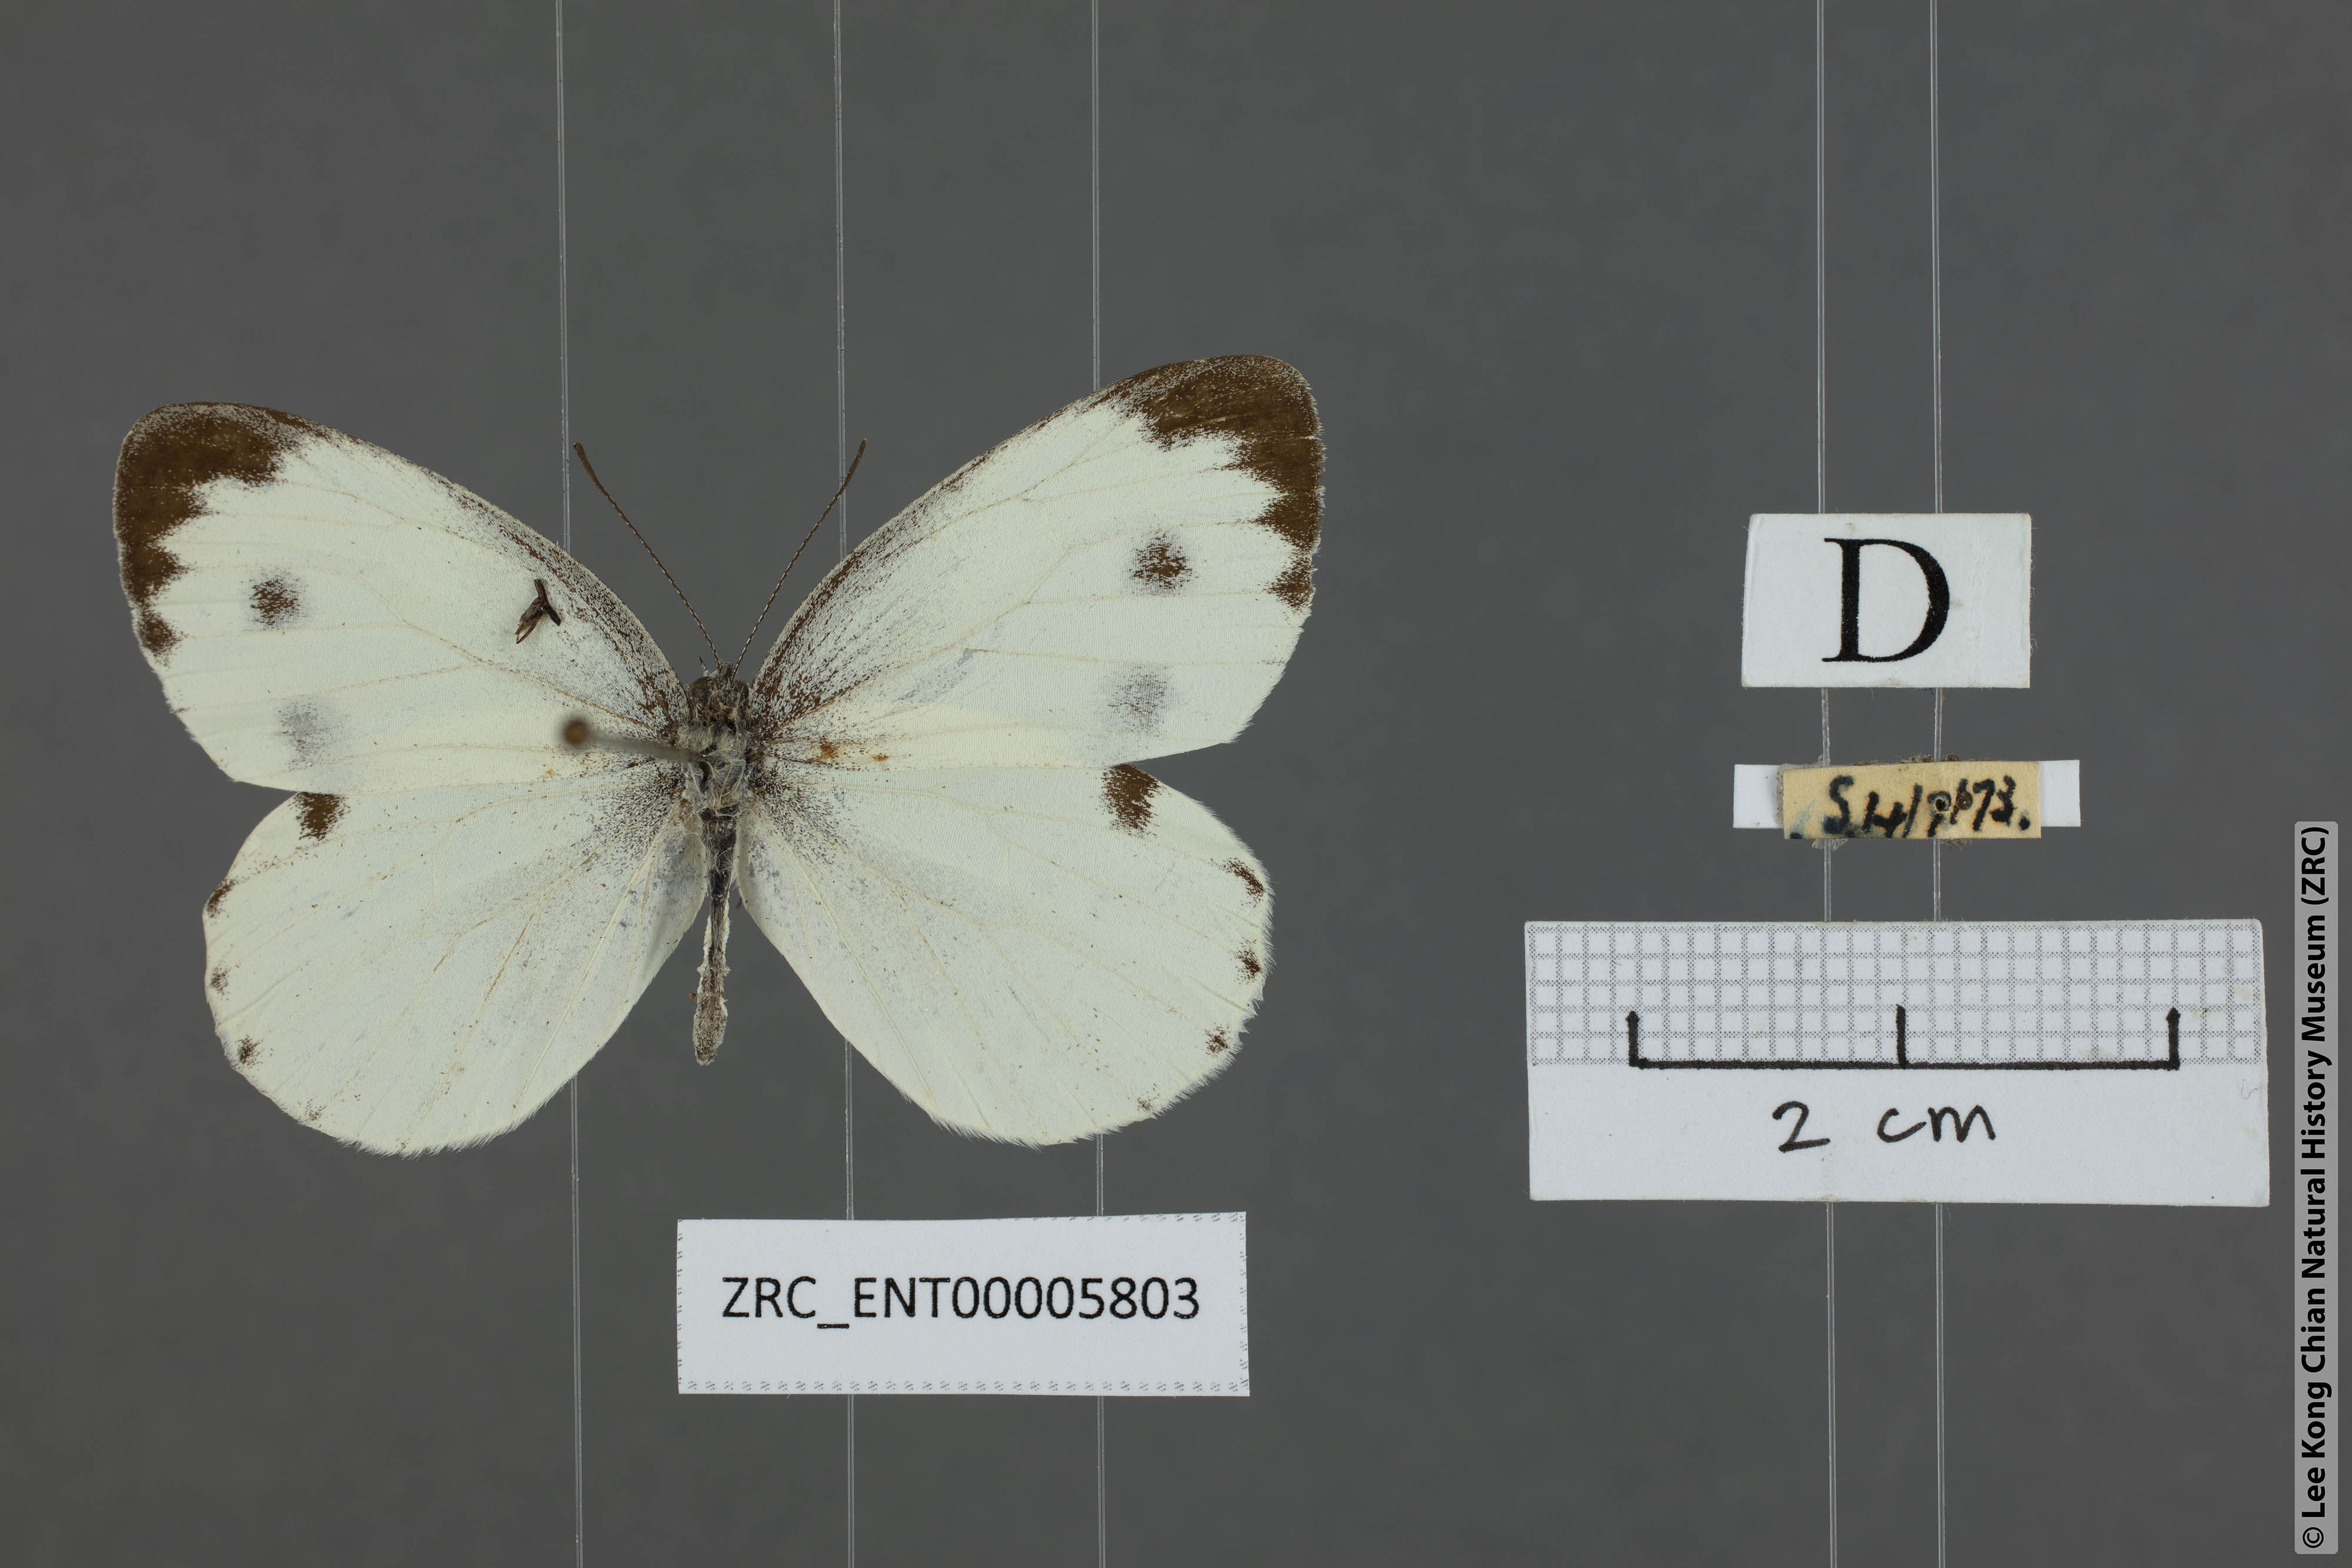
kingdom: Animalia
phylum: Arthropoda
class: Insecta
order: Lepidoptera
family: Pieridae
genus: Pieris
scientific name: Pieris canidia
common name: Indian cabbage white
